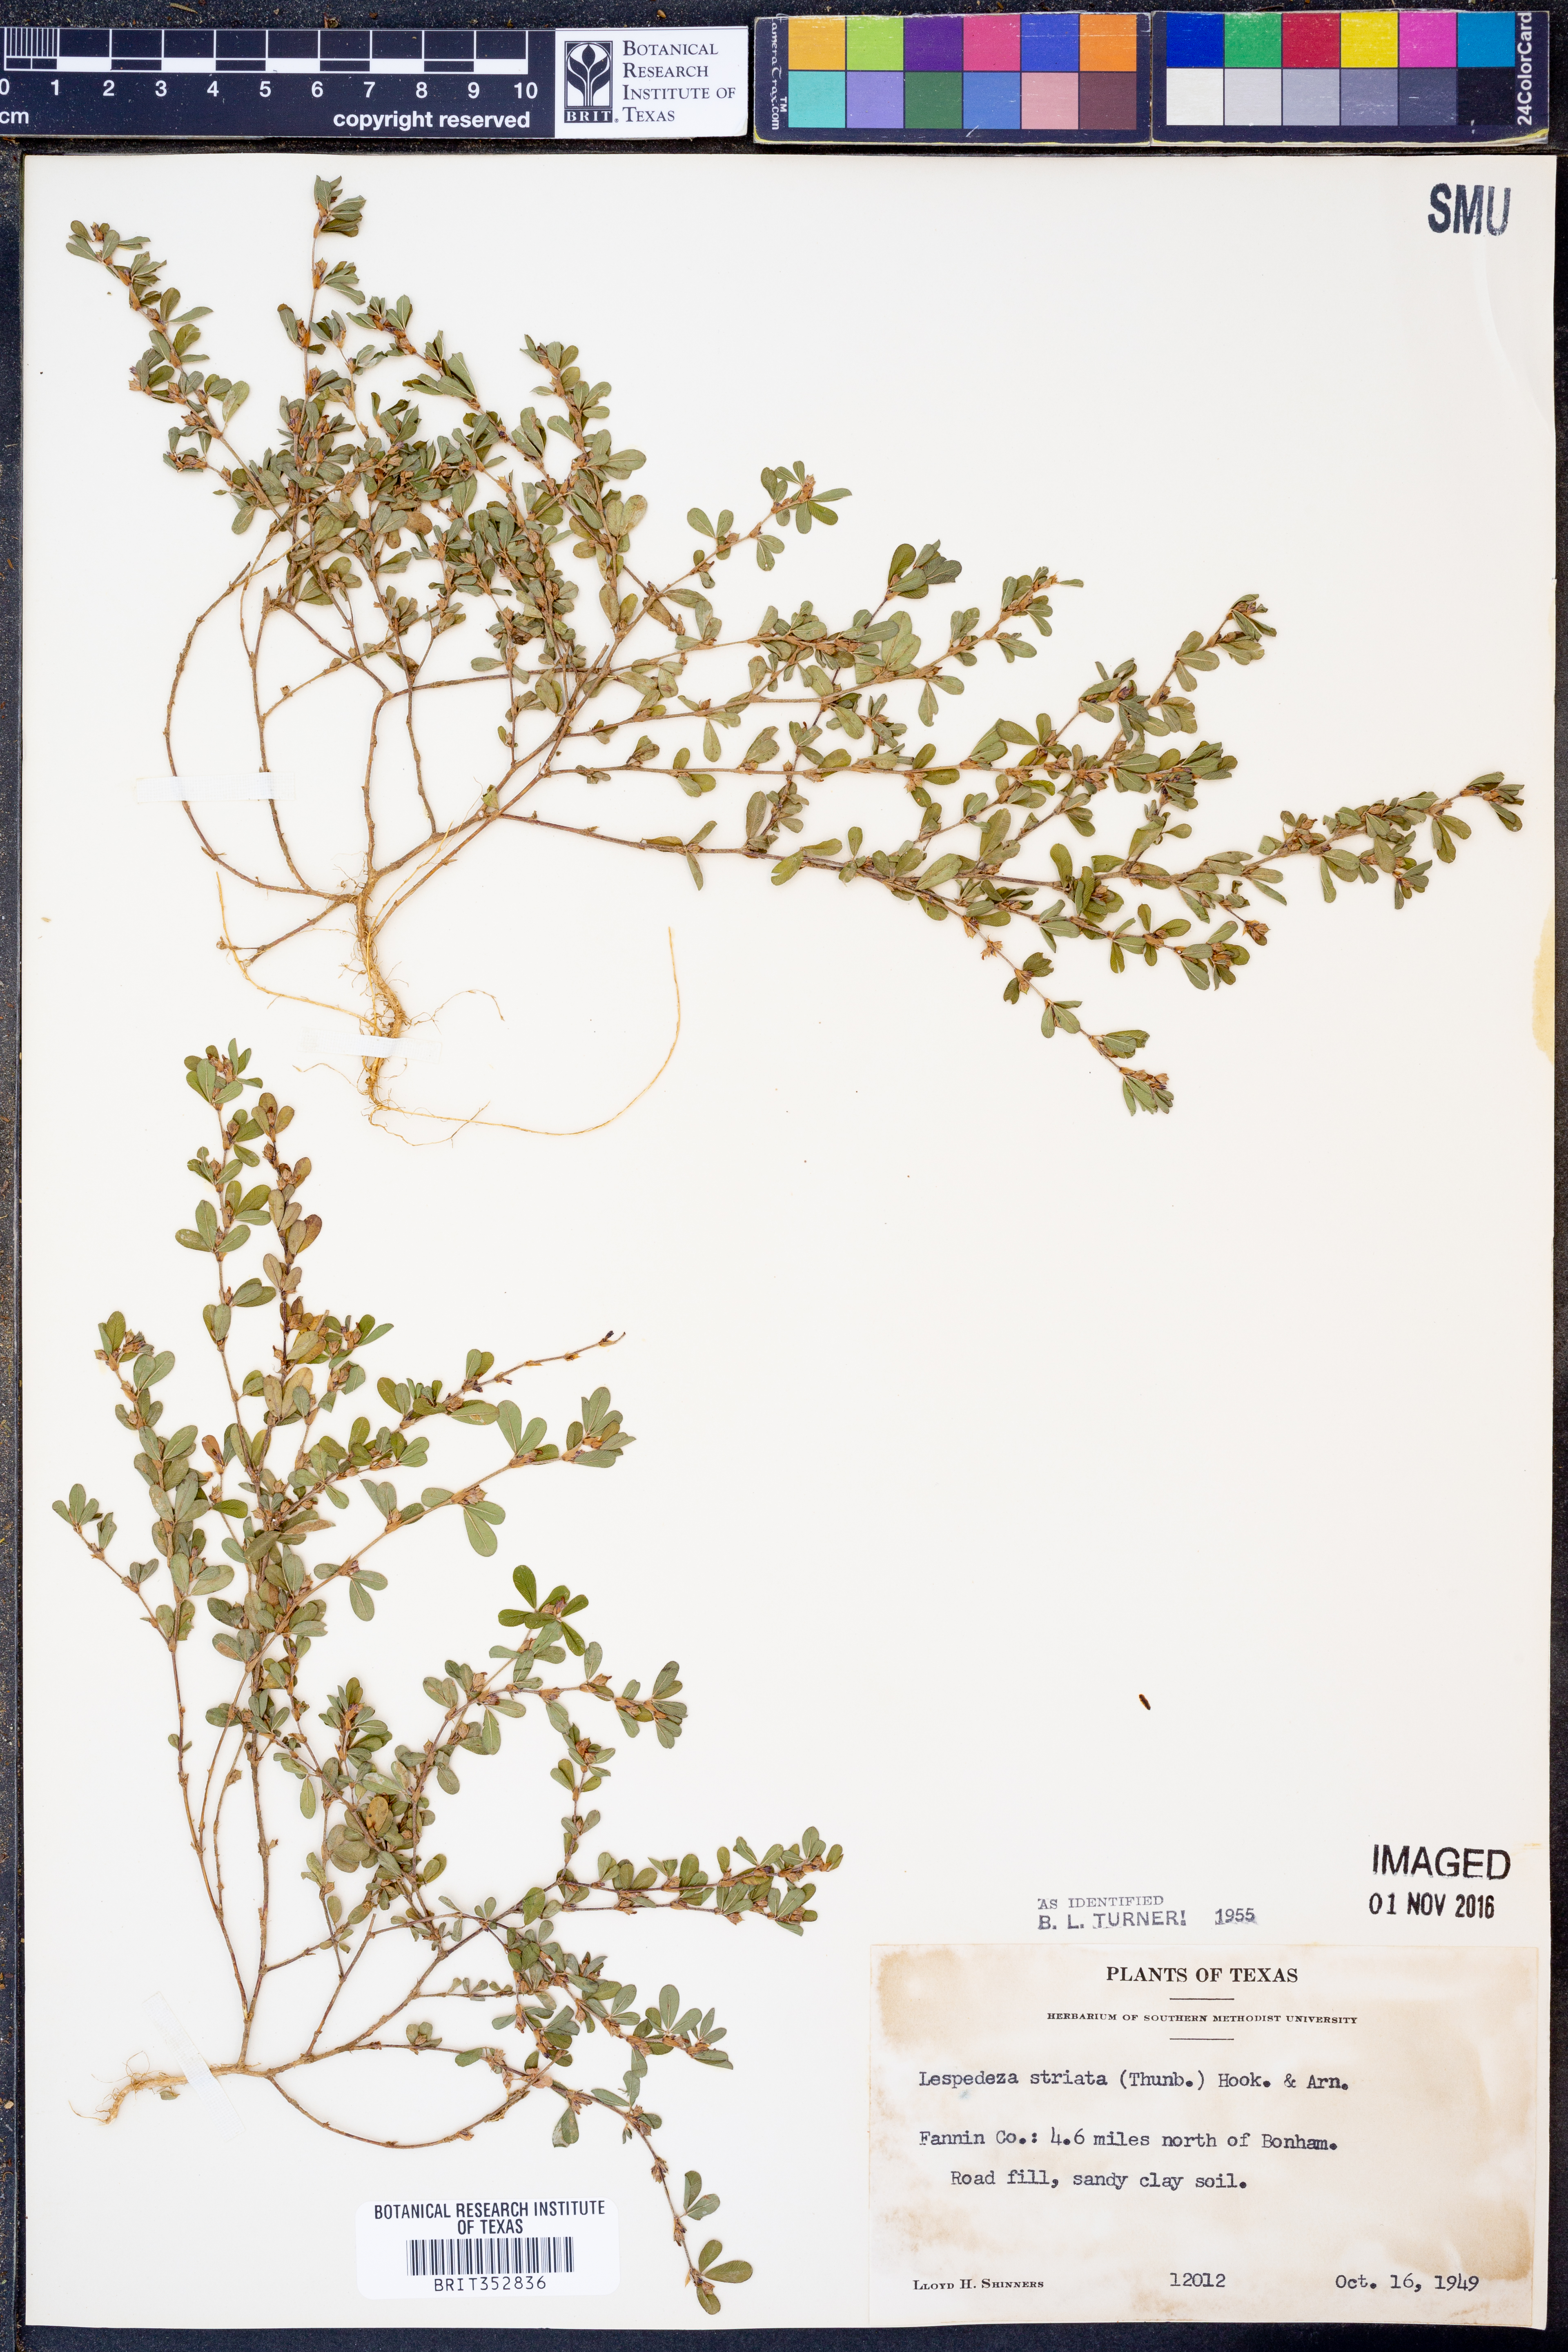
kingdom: Plantae
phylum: Tracheophyta
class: Magnoliopsida
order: Fabales
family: Fabaceae
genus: Kummerowia
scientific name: Kummerowia striata
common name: Japanese clover
